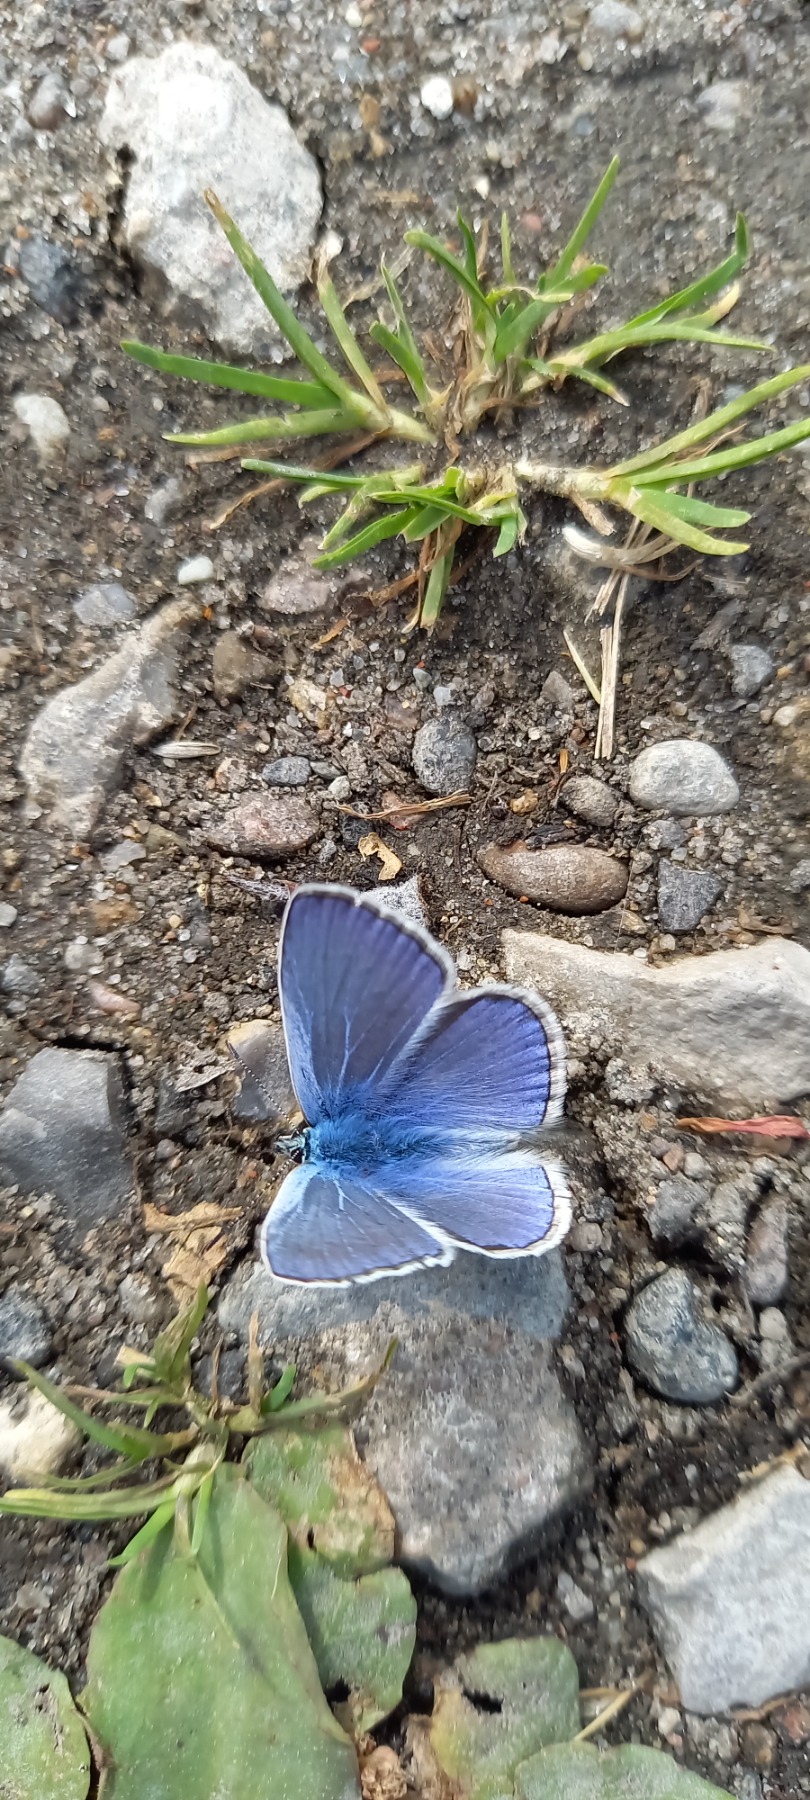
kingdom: Animalia
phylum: Arthropoda
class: Insecta
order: Lepidoptera
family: Lycaenidae
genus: Polyommatus
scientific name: Polyommatus icarus
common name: Almindelig blåfugl
